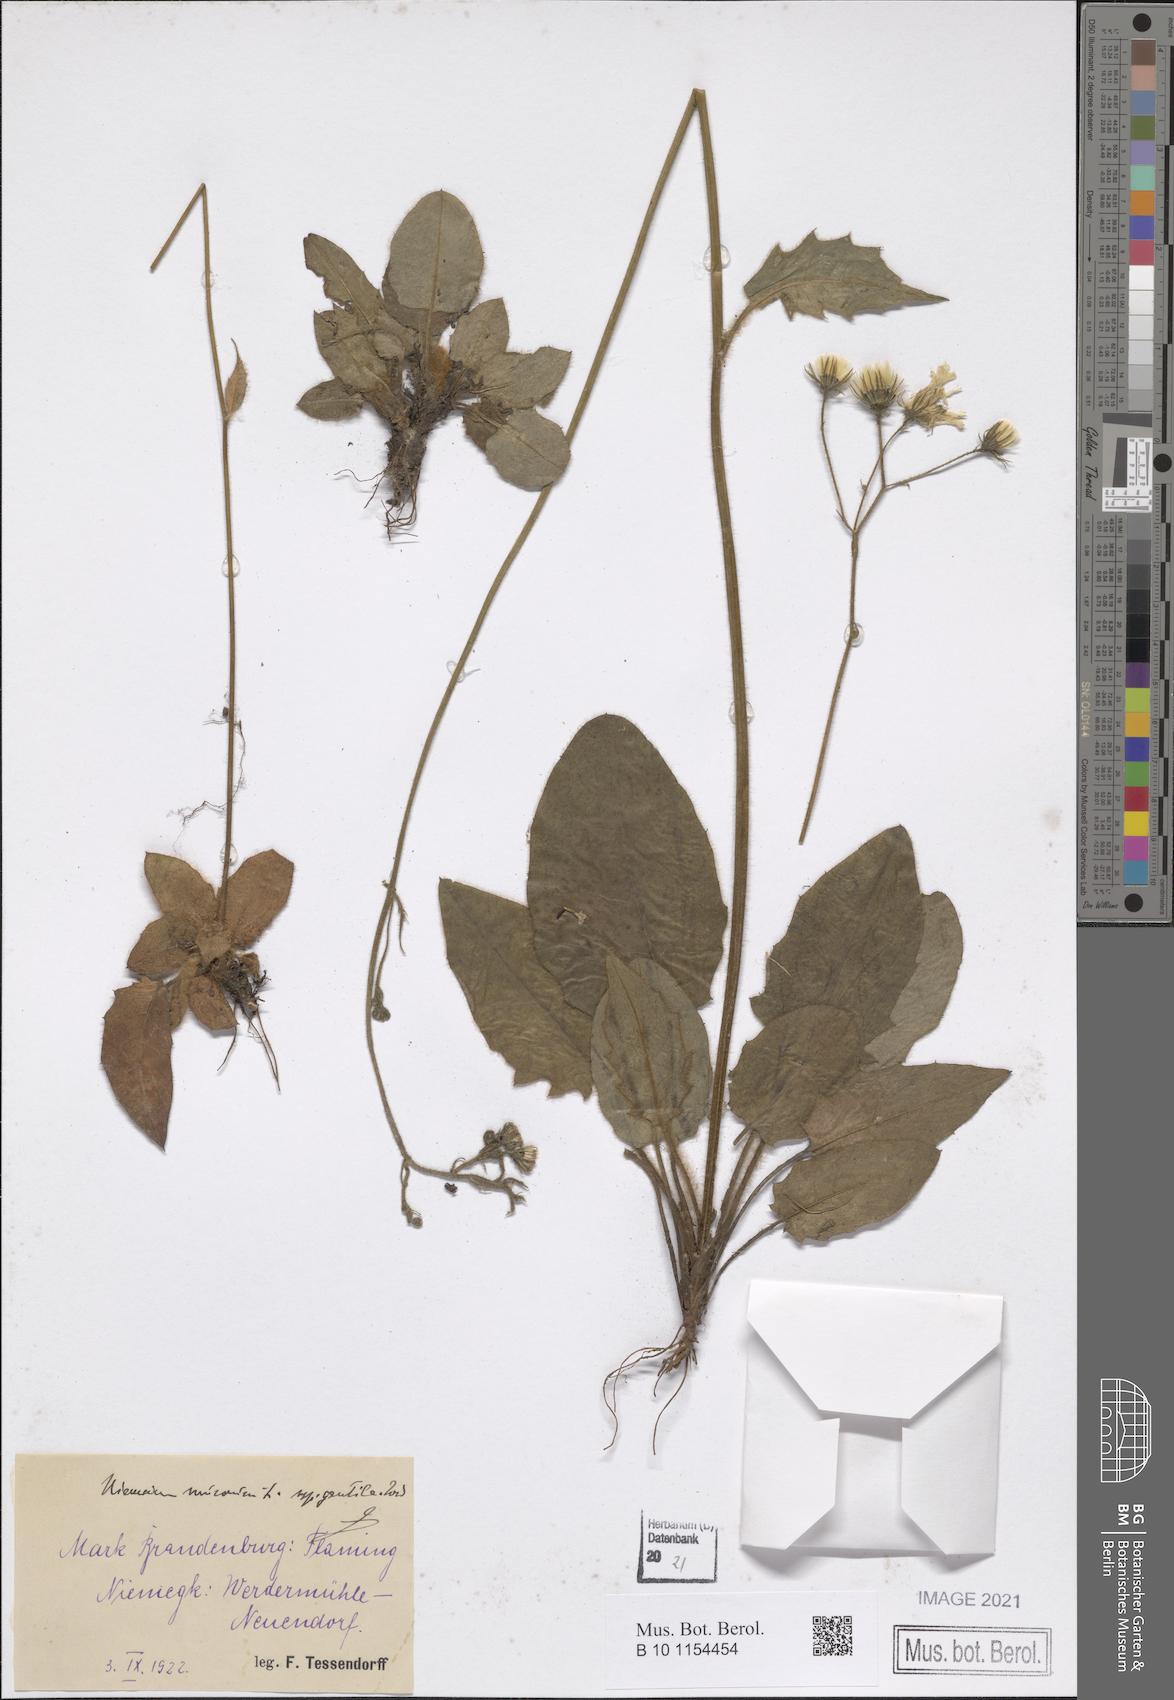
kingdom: Plantae
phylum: Tracheophyta
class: Magnoliopsida
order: Asterales
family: Asteraceae
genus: Hieracium
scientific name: Hieracium murorum
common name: Wall hawkweed
